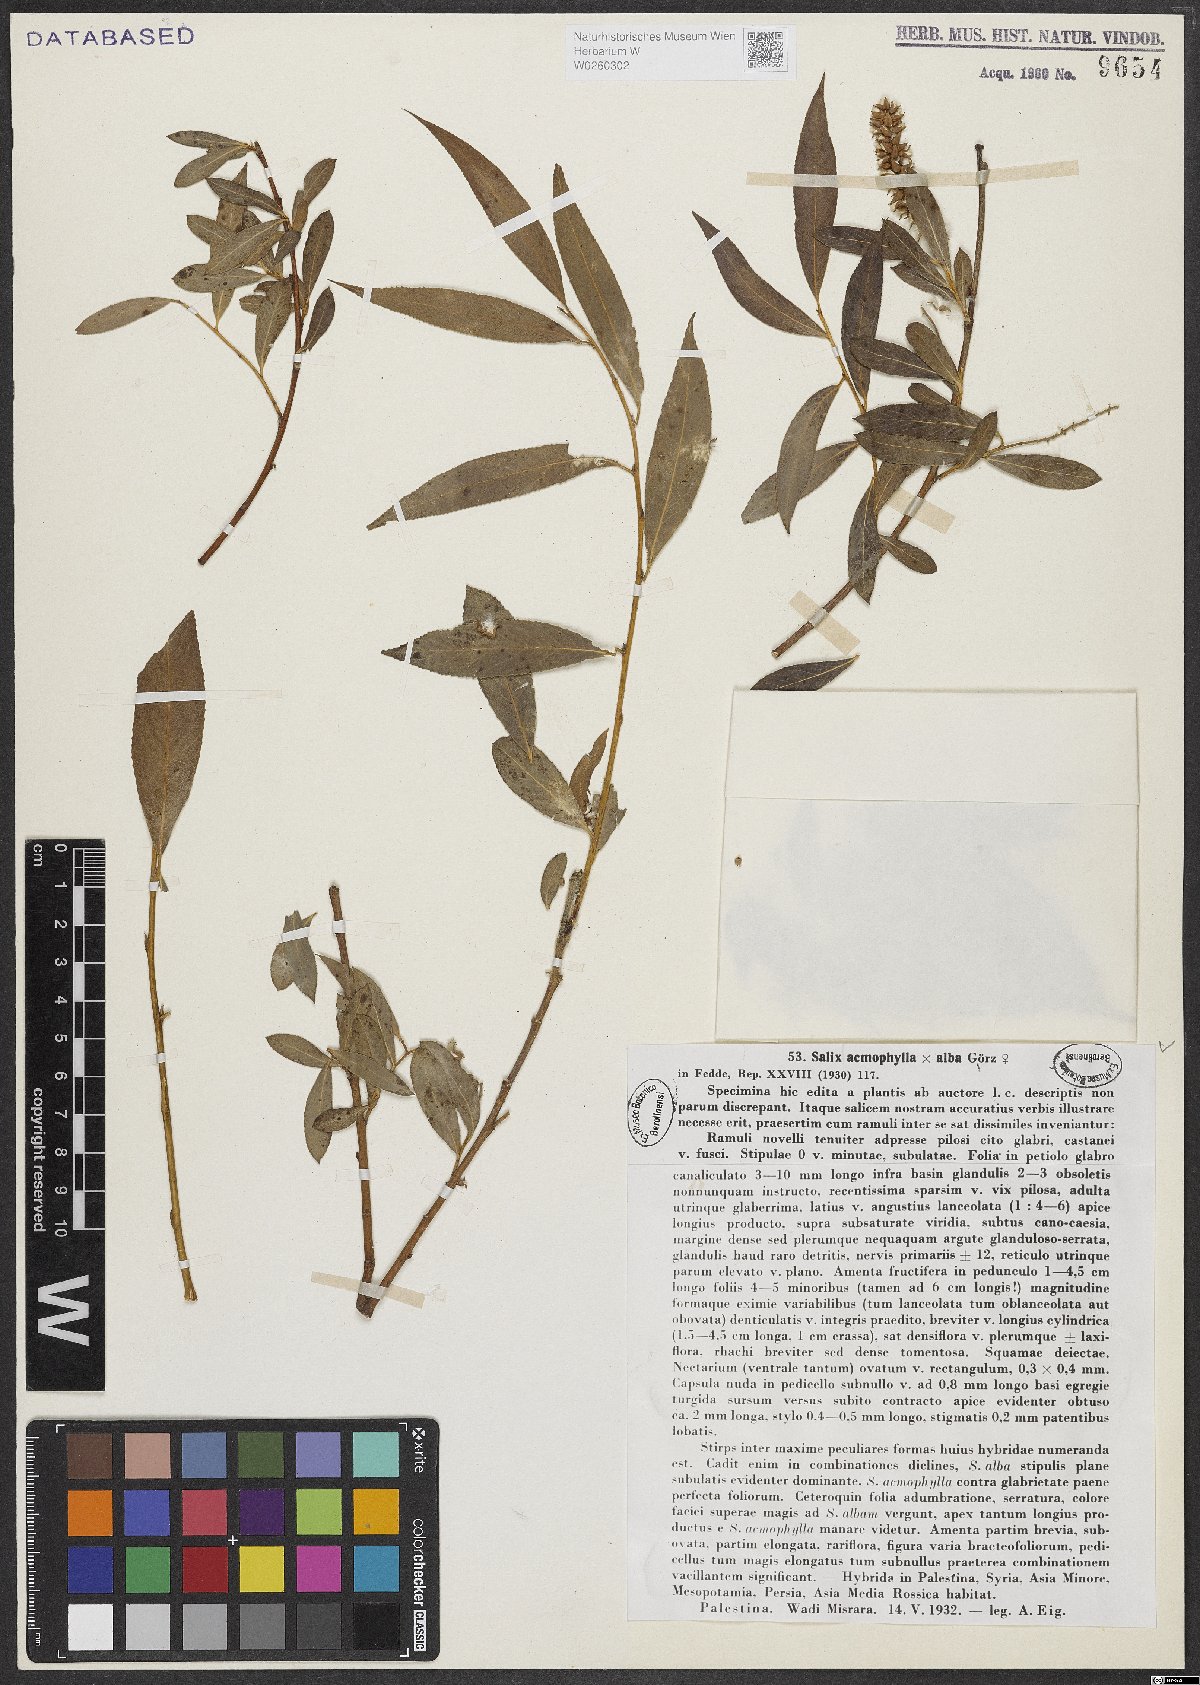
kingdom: Plantae
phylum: Tracheophyta
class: Magnoliopsida
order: Malpighiales
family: Salicaceae
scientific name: Salicaceae
